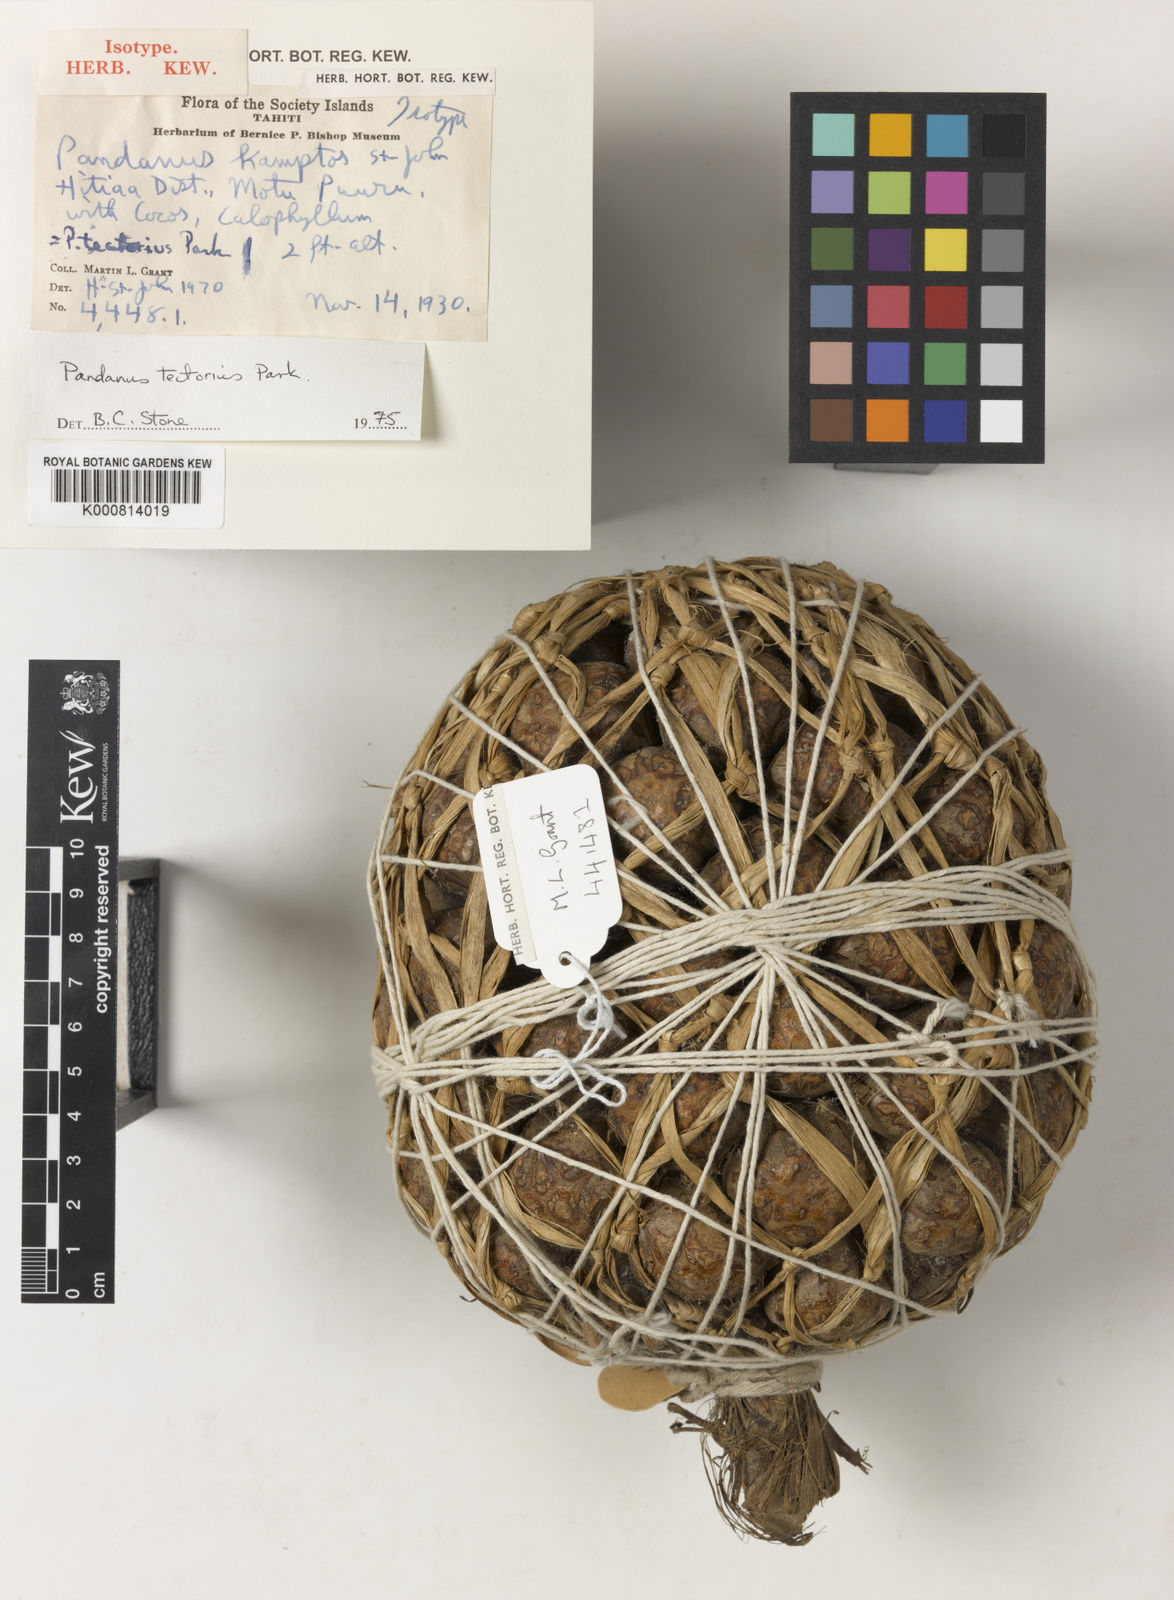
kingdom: Plantae
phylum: Tracheophyta
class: Liliopsida
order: Pandanales
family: Pandanaceae
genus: Pandanus
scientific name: Pandanus
